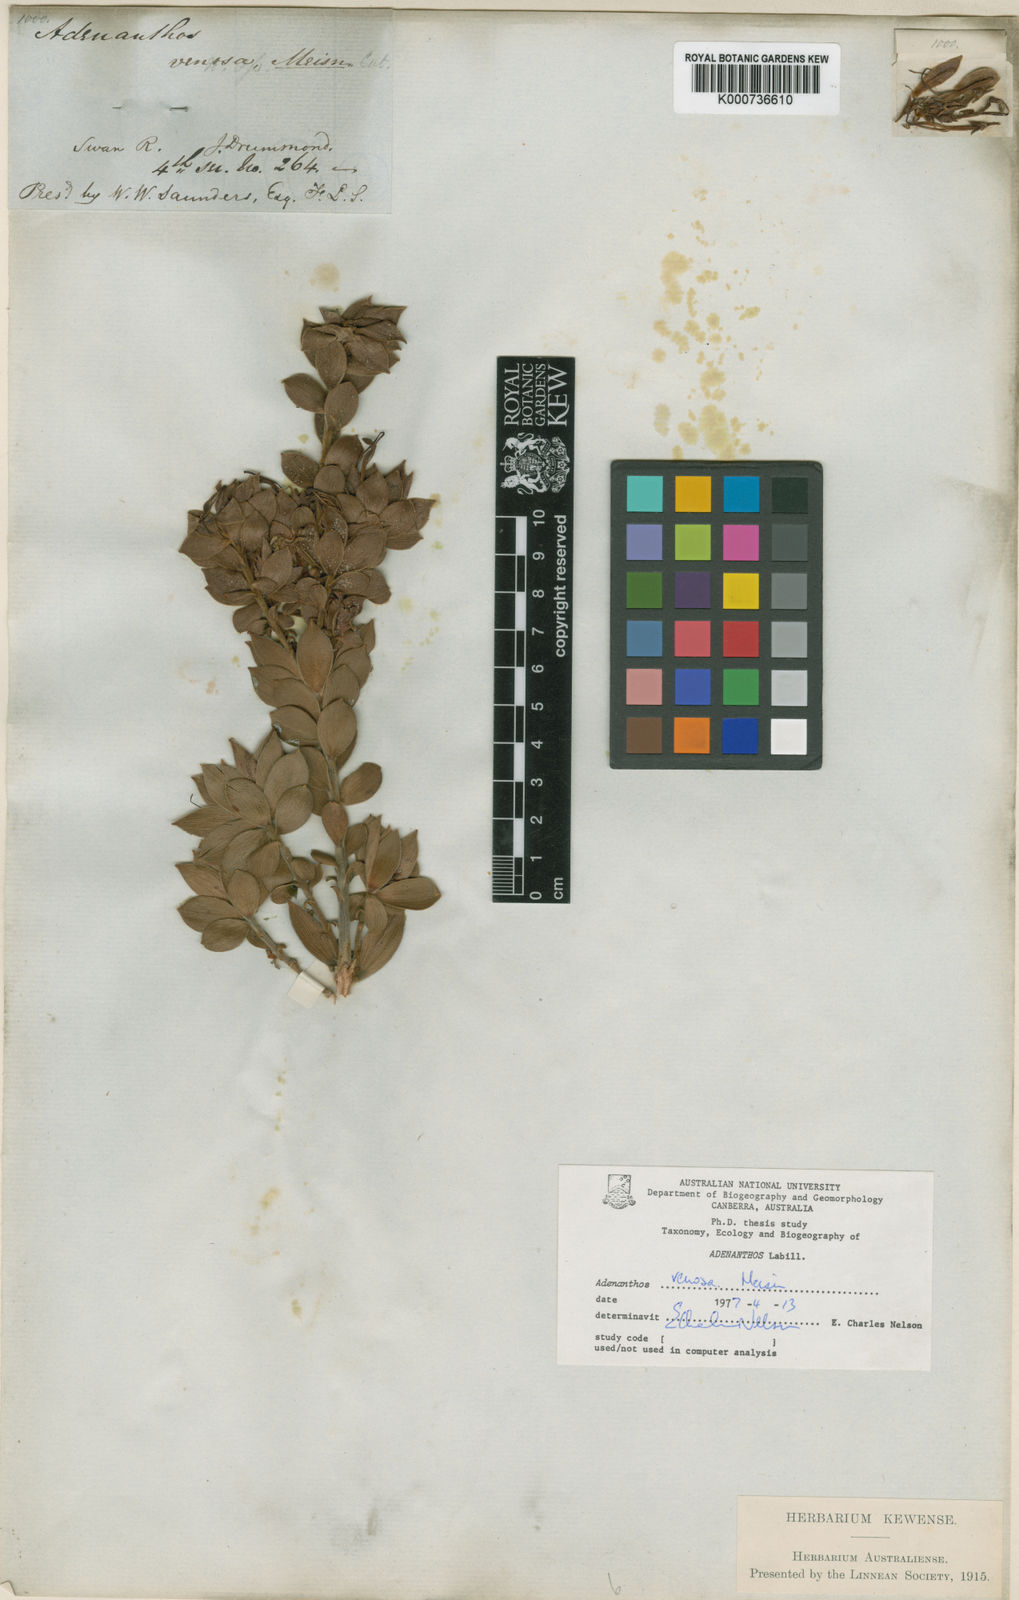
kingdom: Plantae
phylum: Tracheophyta
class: Magnoliopsida
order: Proteales
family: Proteaceae
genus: Adenanthos
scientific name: Adenanthos venosus
